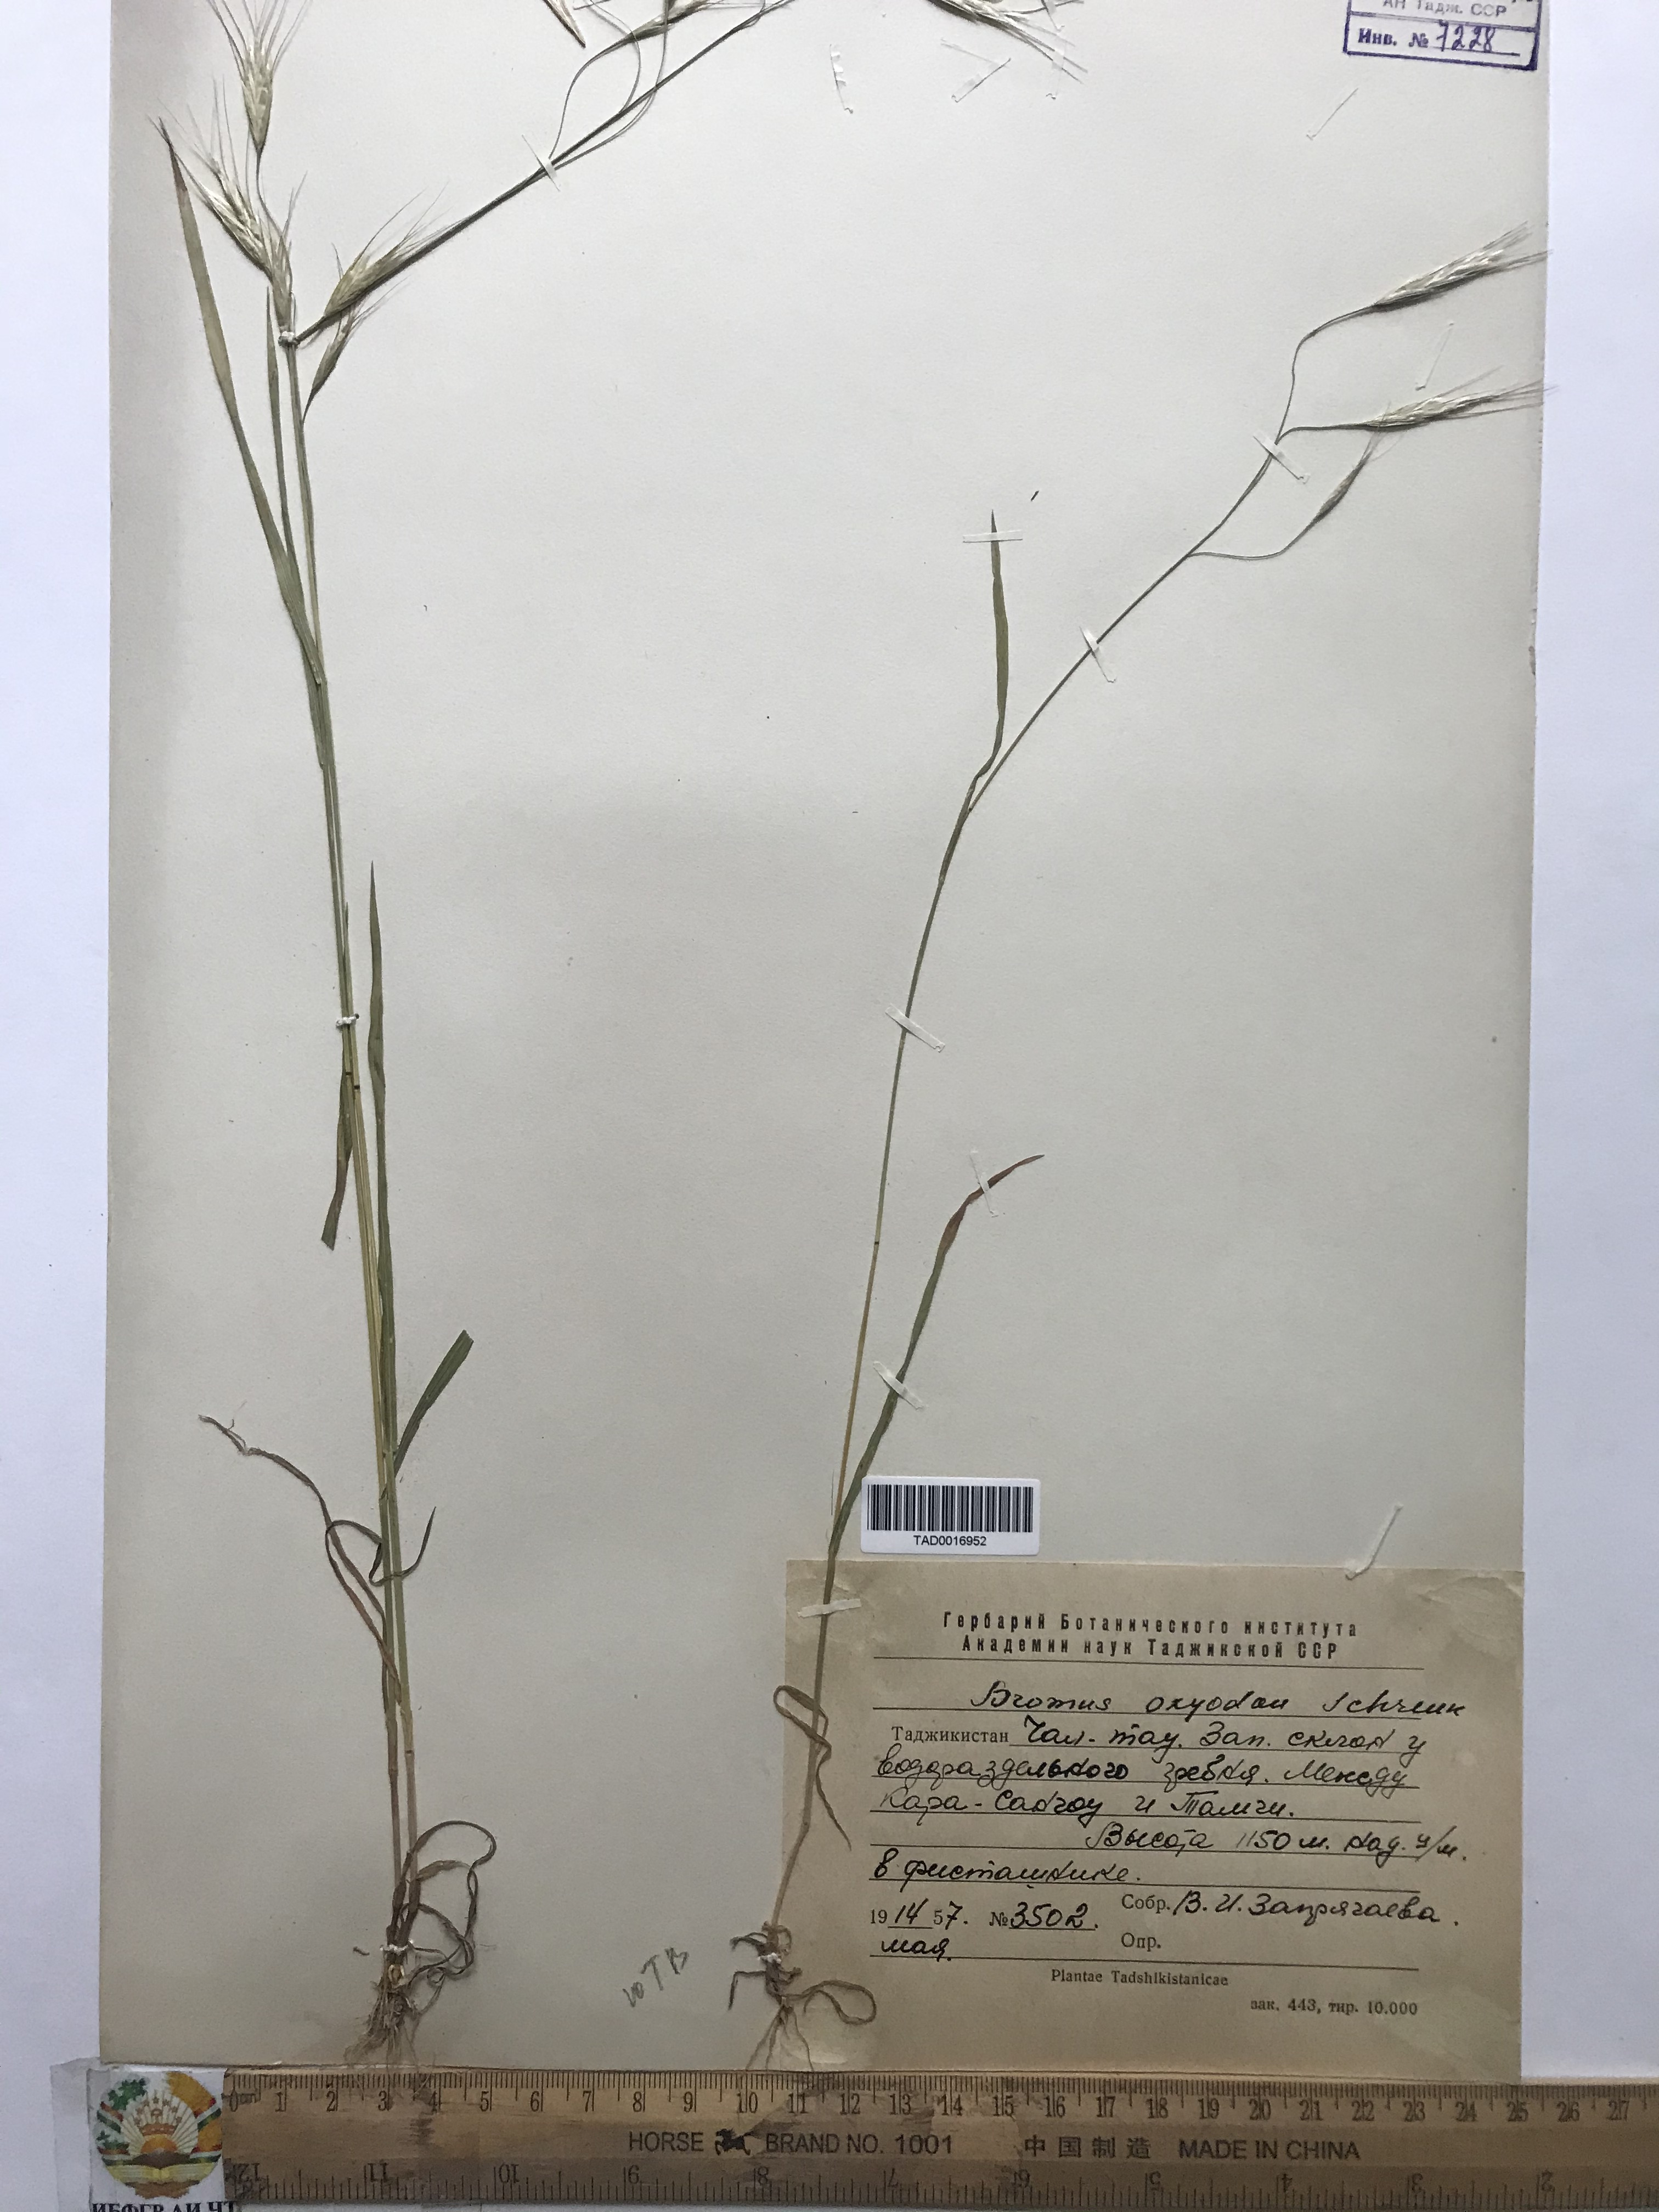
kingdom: Plantae
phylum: Tracheophyta
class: Liliopsida
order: Poales
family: Poaceae
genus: Bromus
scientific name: Bromus oxyodon
